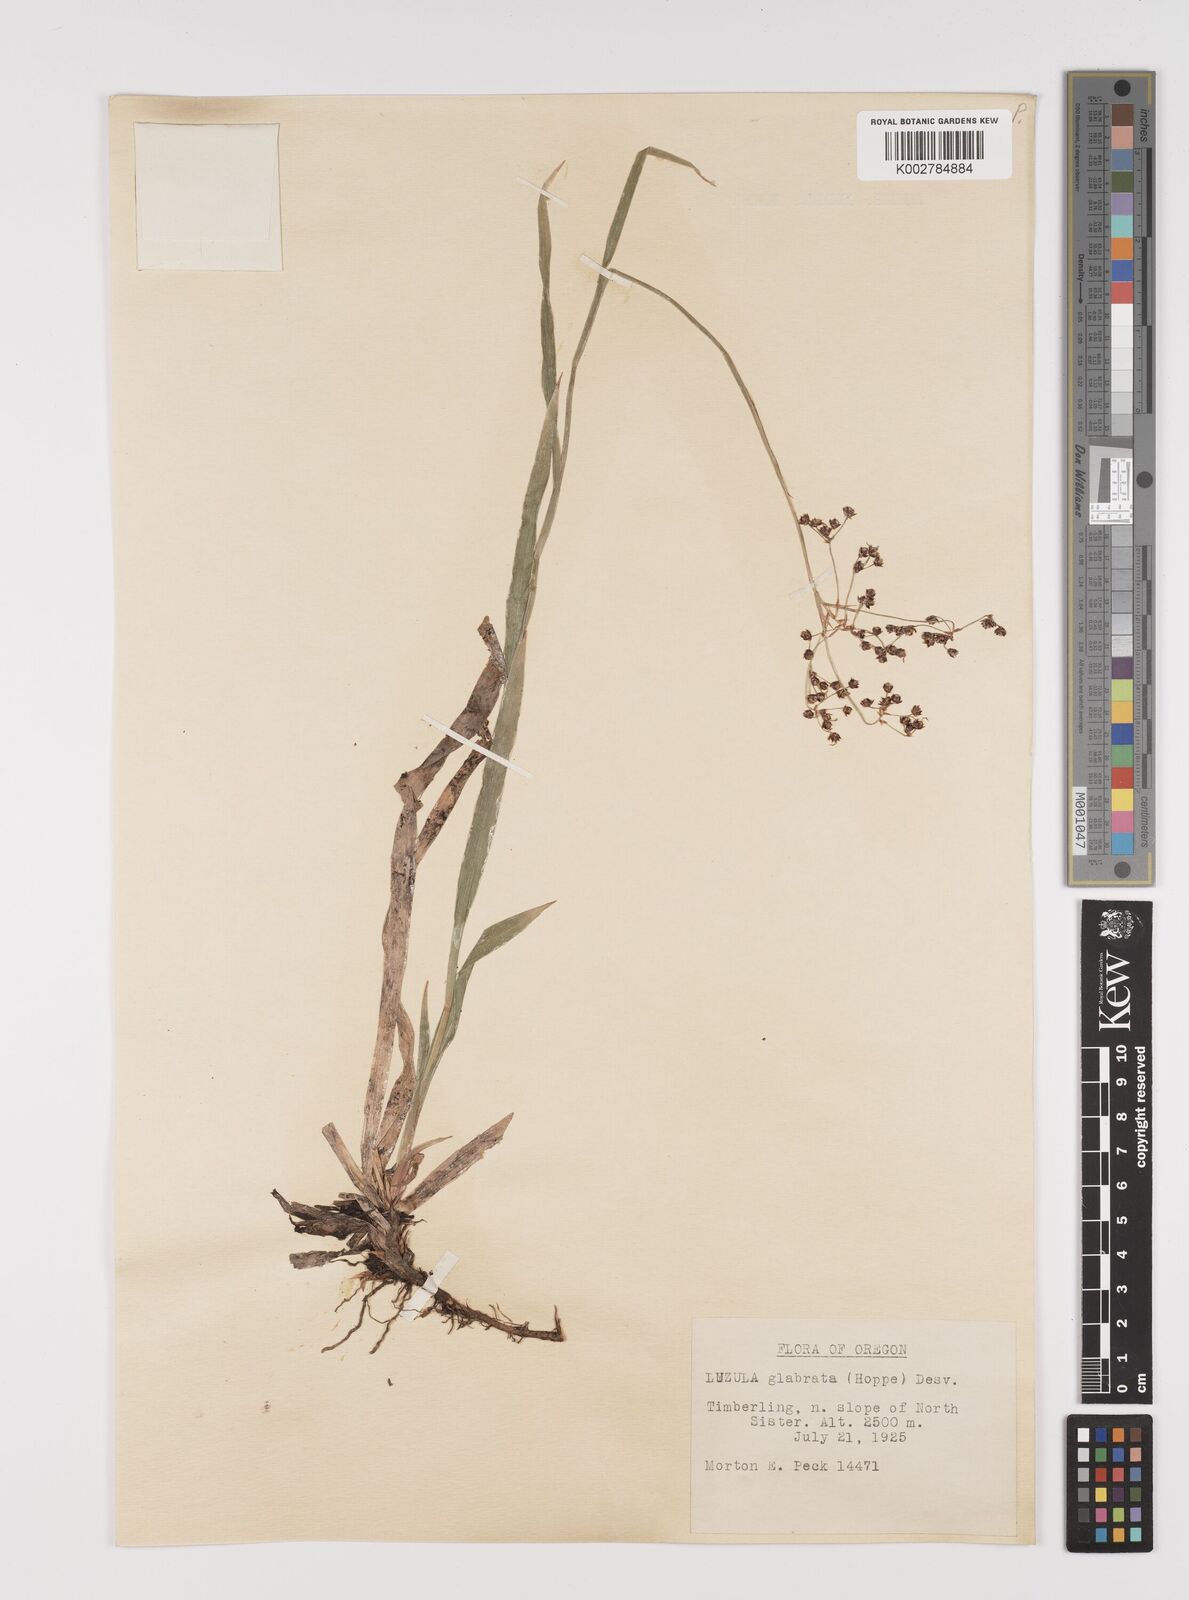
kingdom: Plantae
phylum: Tracheophyta
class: Liliopsida
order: Poales
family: Juncaceae
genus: Luzula
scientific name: Luzula glabrata
